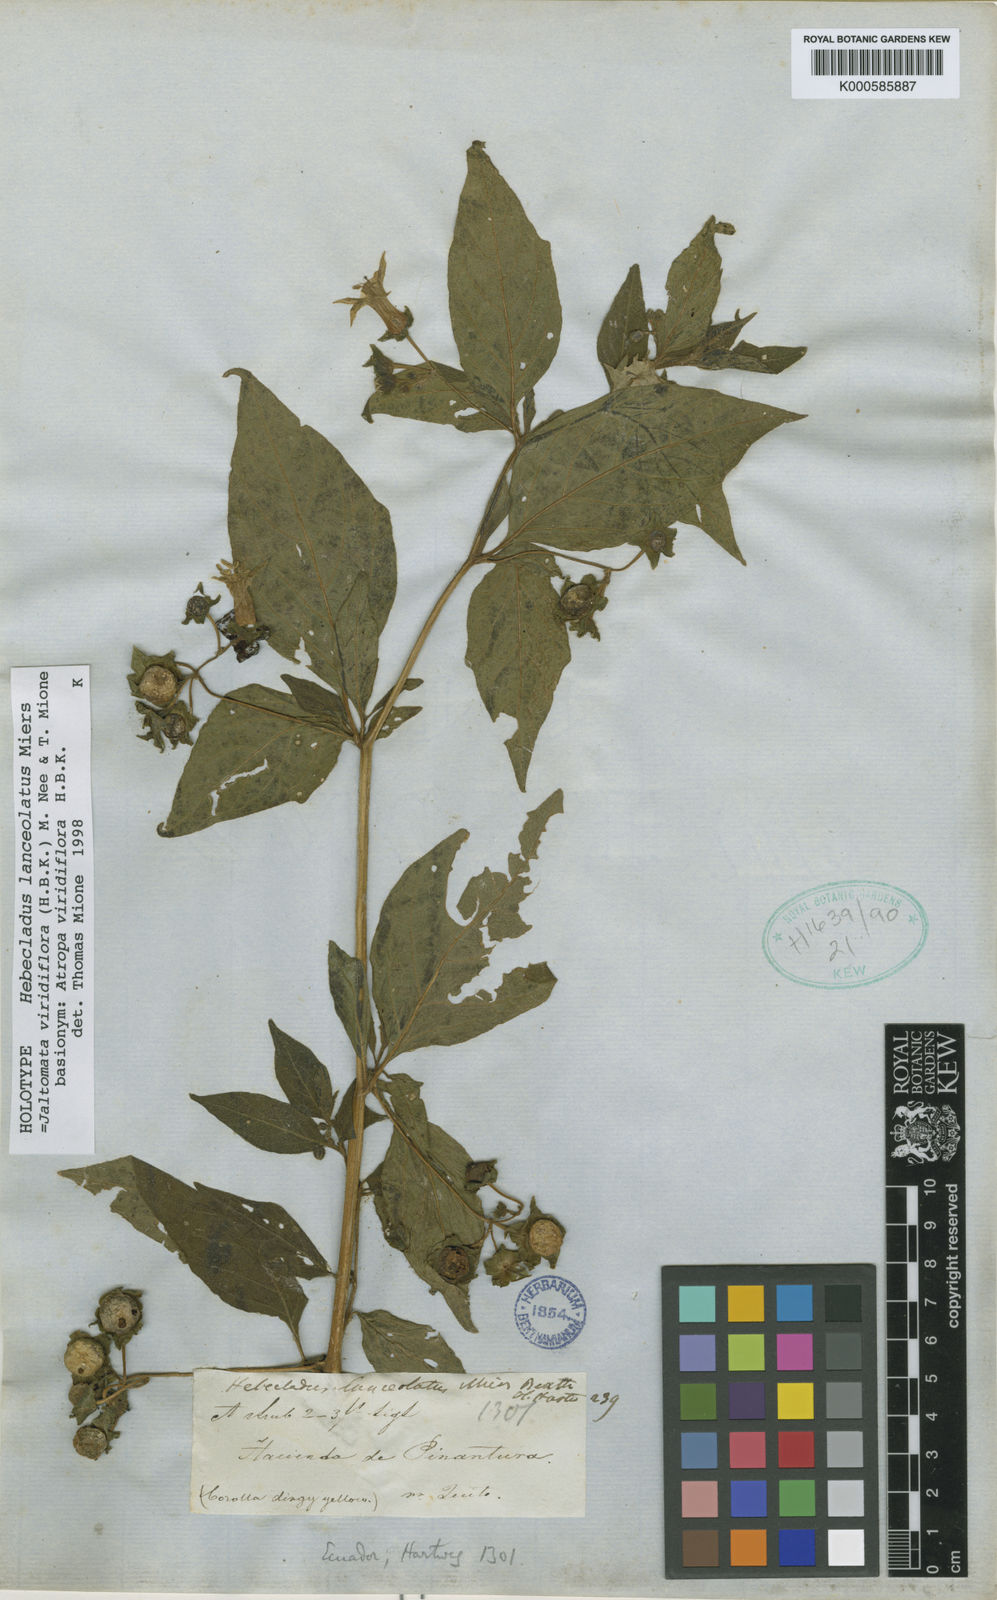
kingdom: Plantae
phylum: Tracheophyta
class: Magnoliopsida
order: Solanales
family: Solanaceae
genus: Jaltomata
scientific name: Jaltomata
